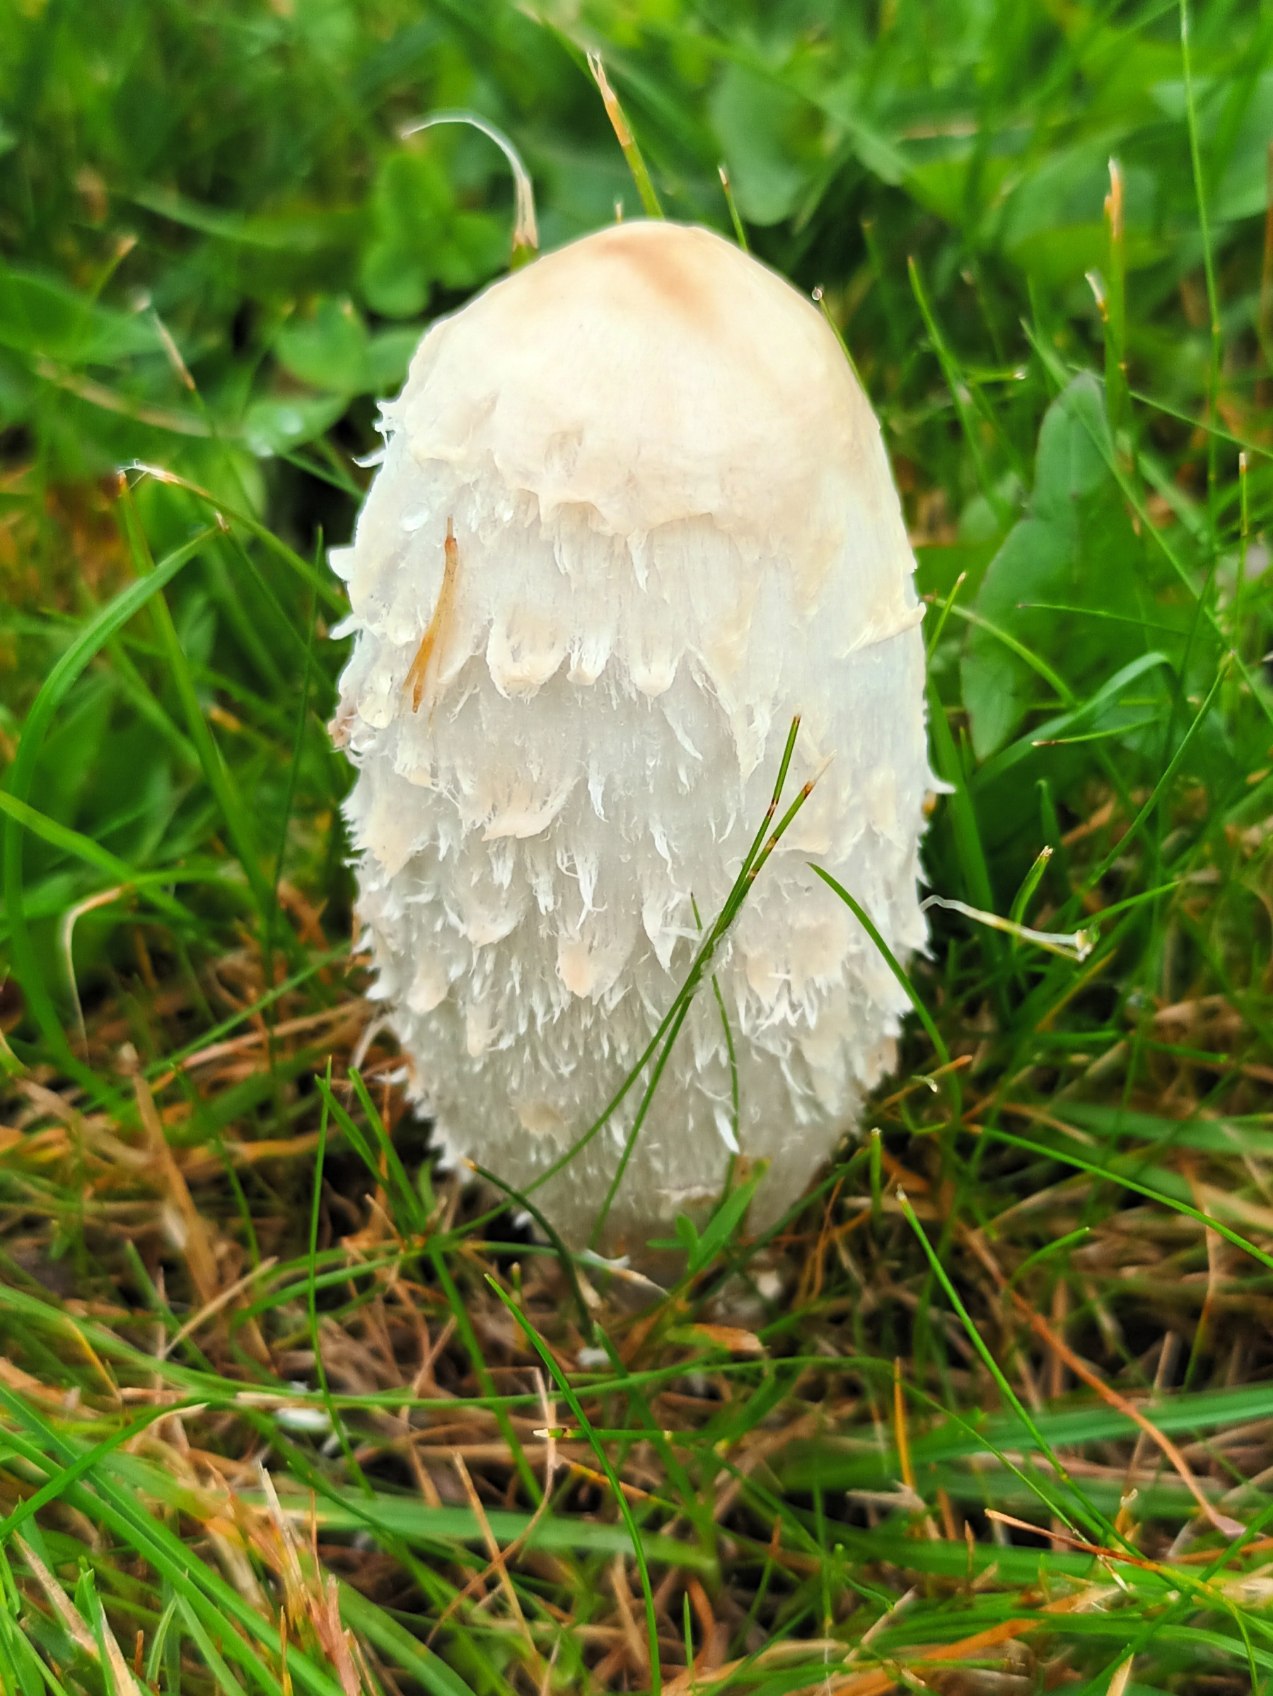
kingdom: Fungi
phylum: Basidiomycota
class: Agaricomycetes
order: Agaricales
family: Agaricaceae
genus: Coprinus
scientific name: Coprinus comatus
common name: Stor parykhat
